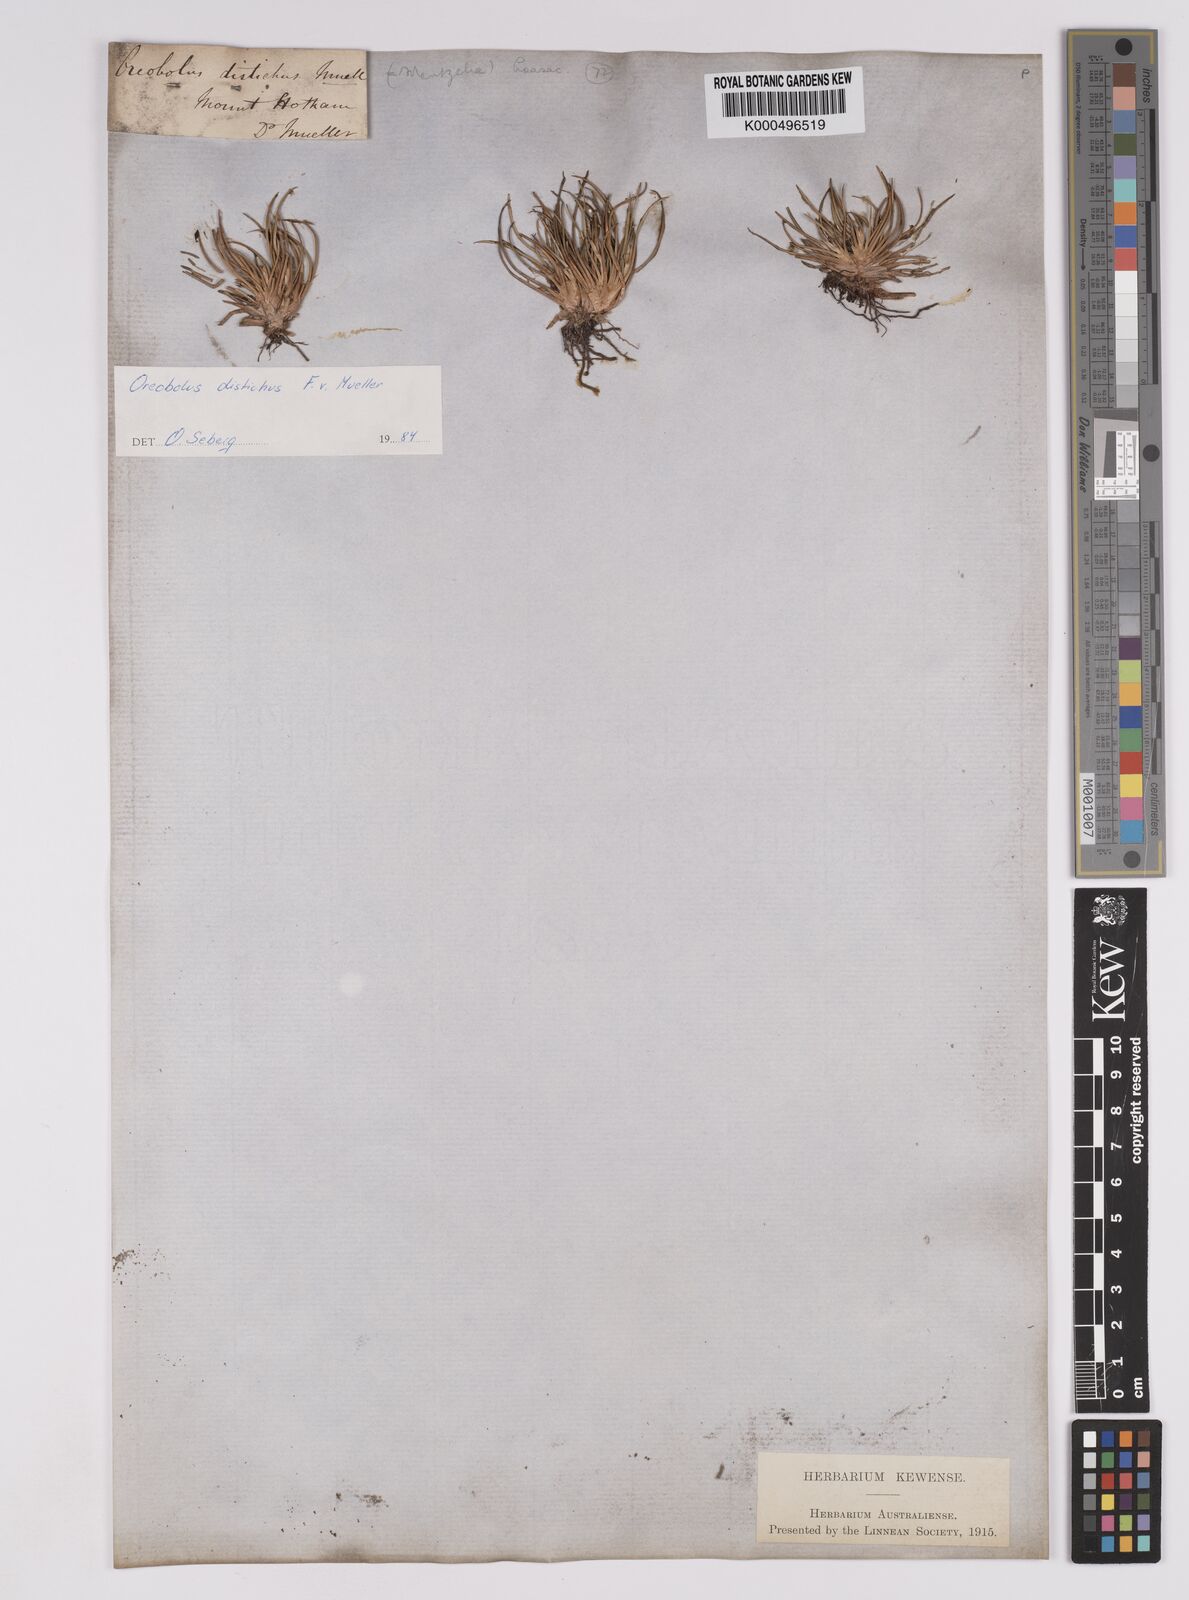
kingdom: Plantae
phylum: Tracheophyta
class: Liliopsida
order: Poales
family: Cyperaceae
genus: Oreobolus
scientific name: Oreobolus
